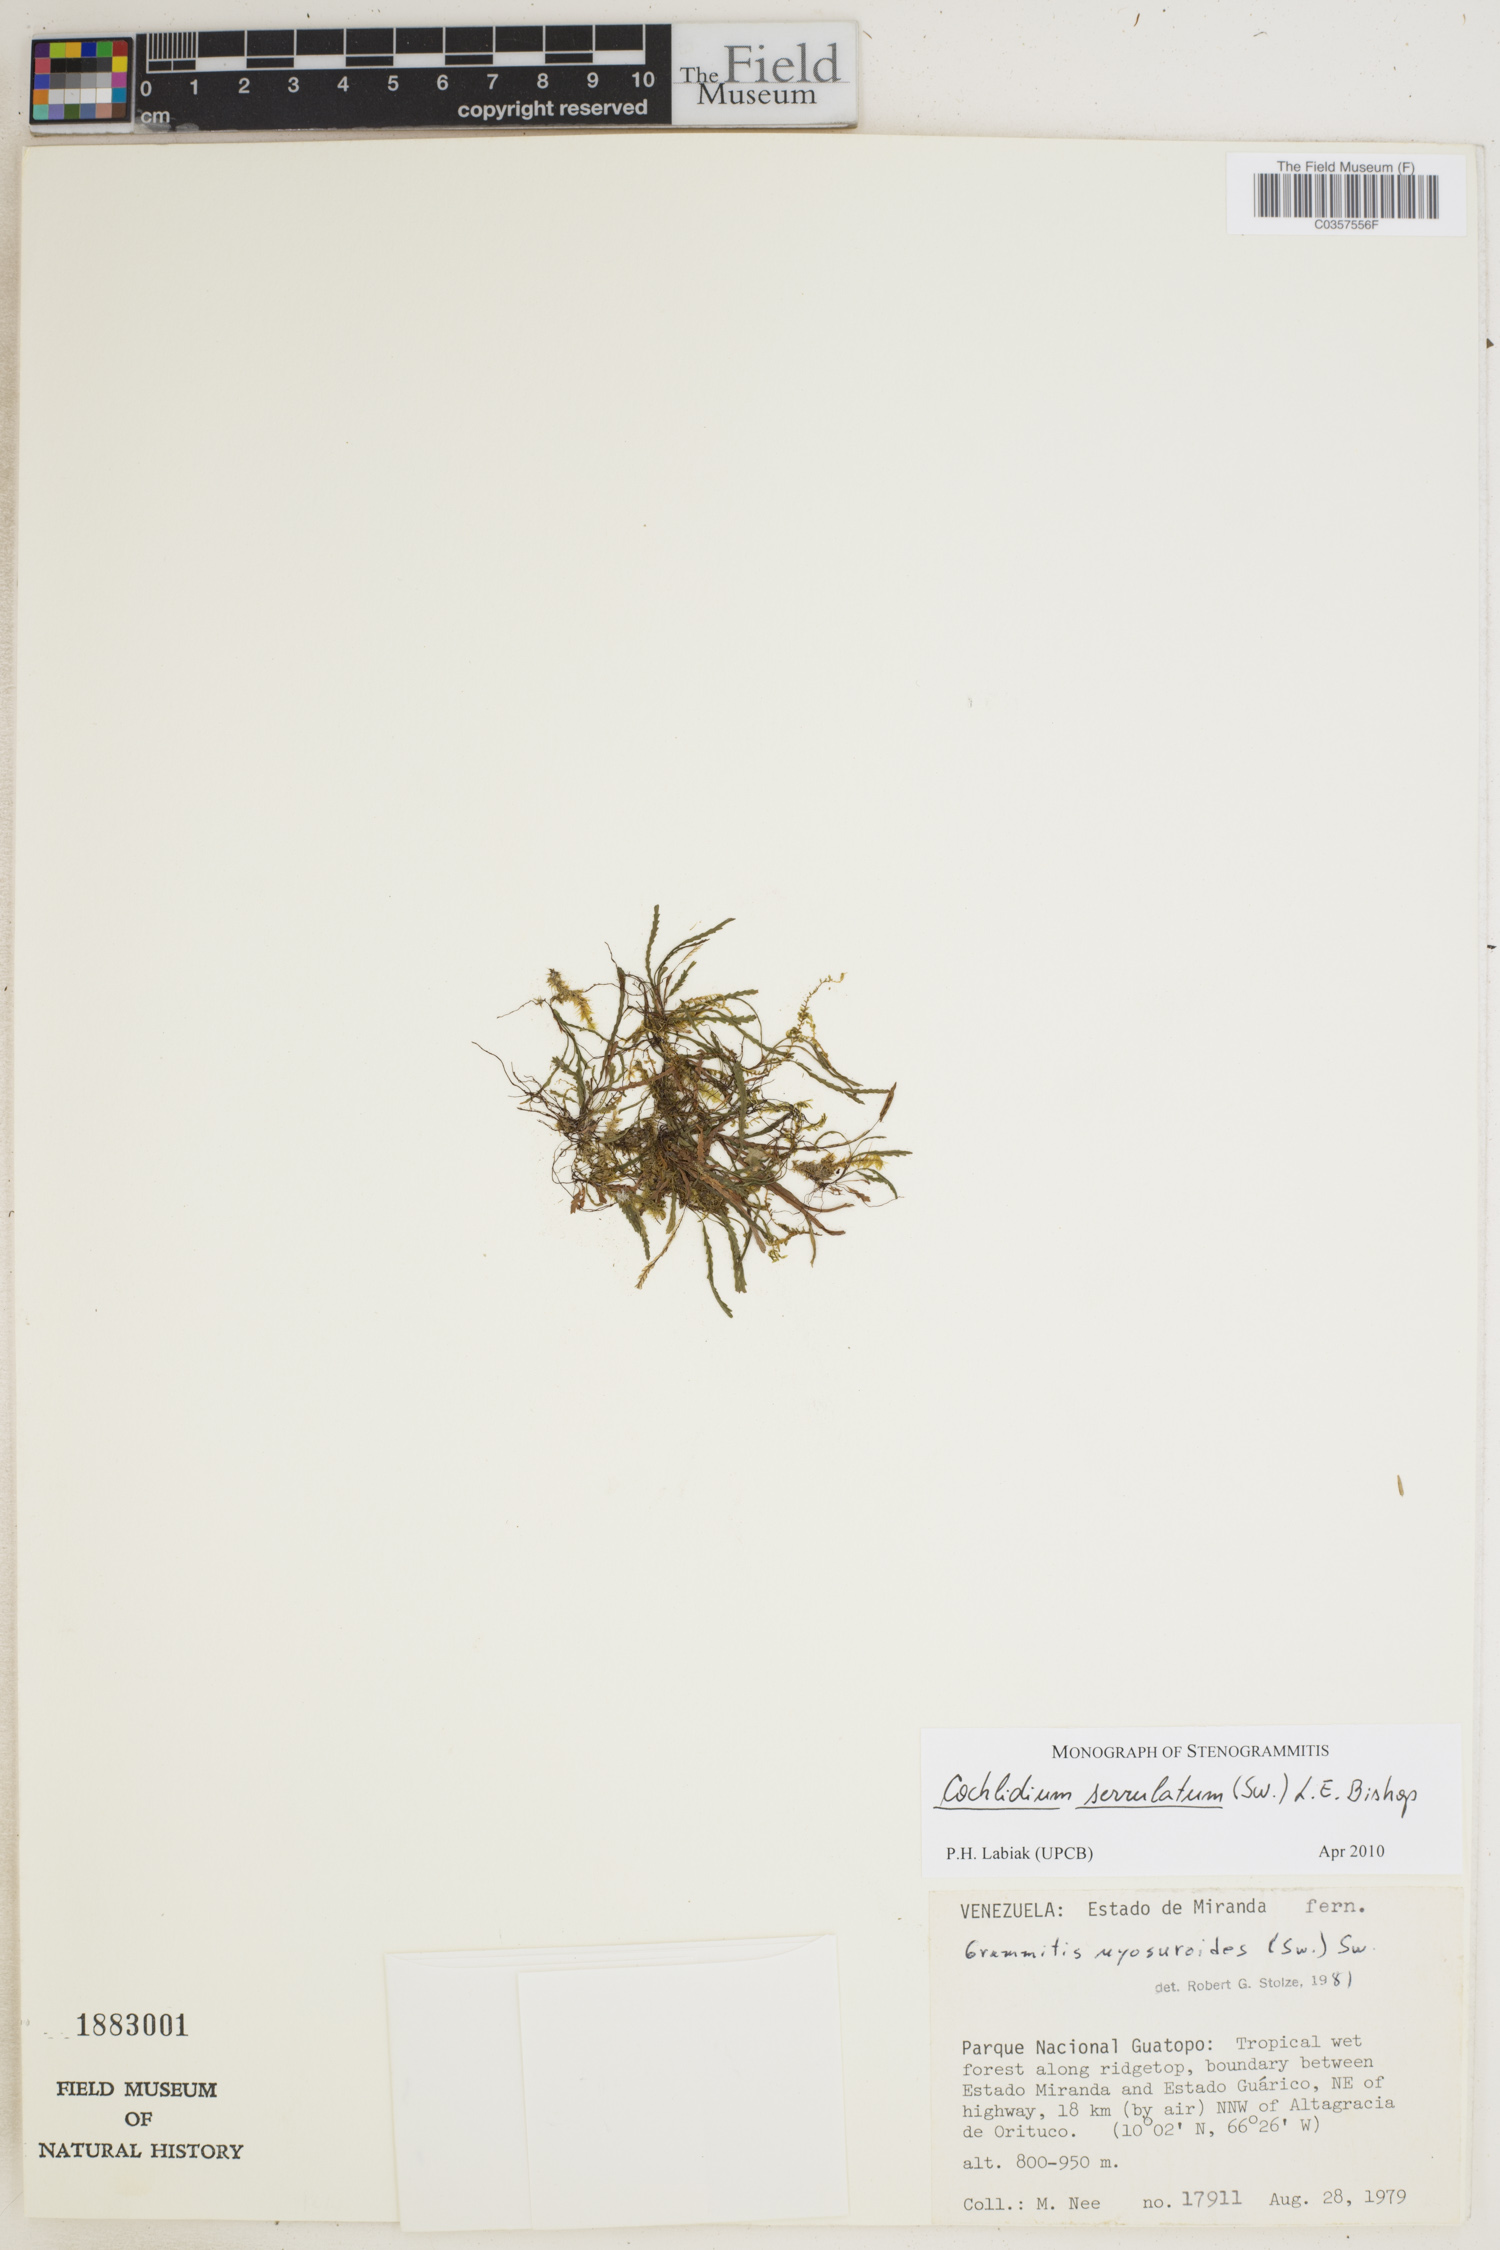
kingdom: Plantae
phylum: Tracheophyta
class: Polypodiopsida
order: Polypodiales
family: Polypodiaceae
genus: Cochlidium
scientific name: Cochlidium serrulatum
